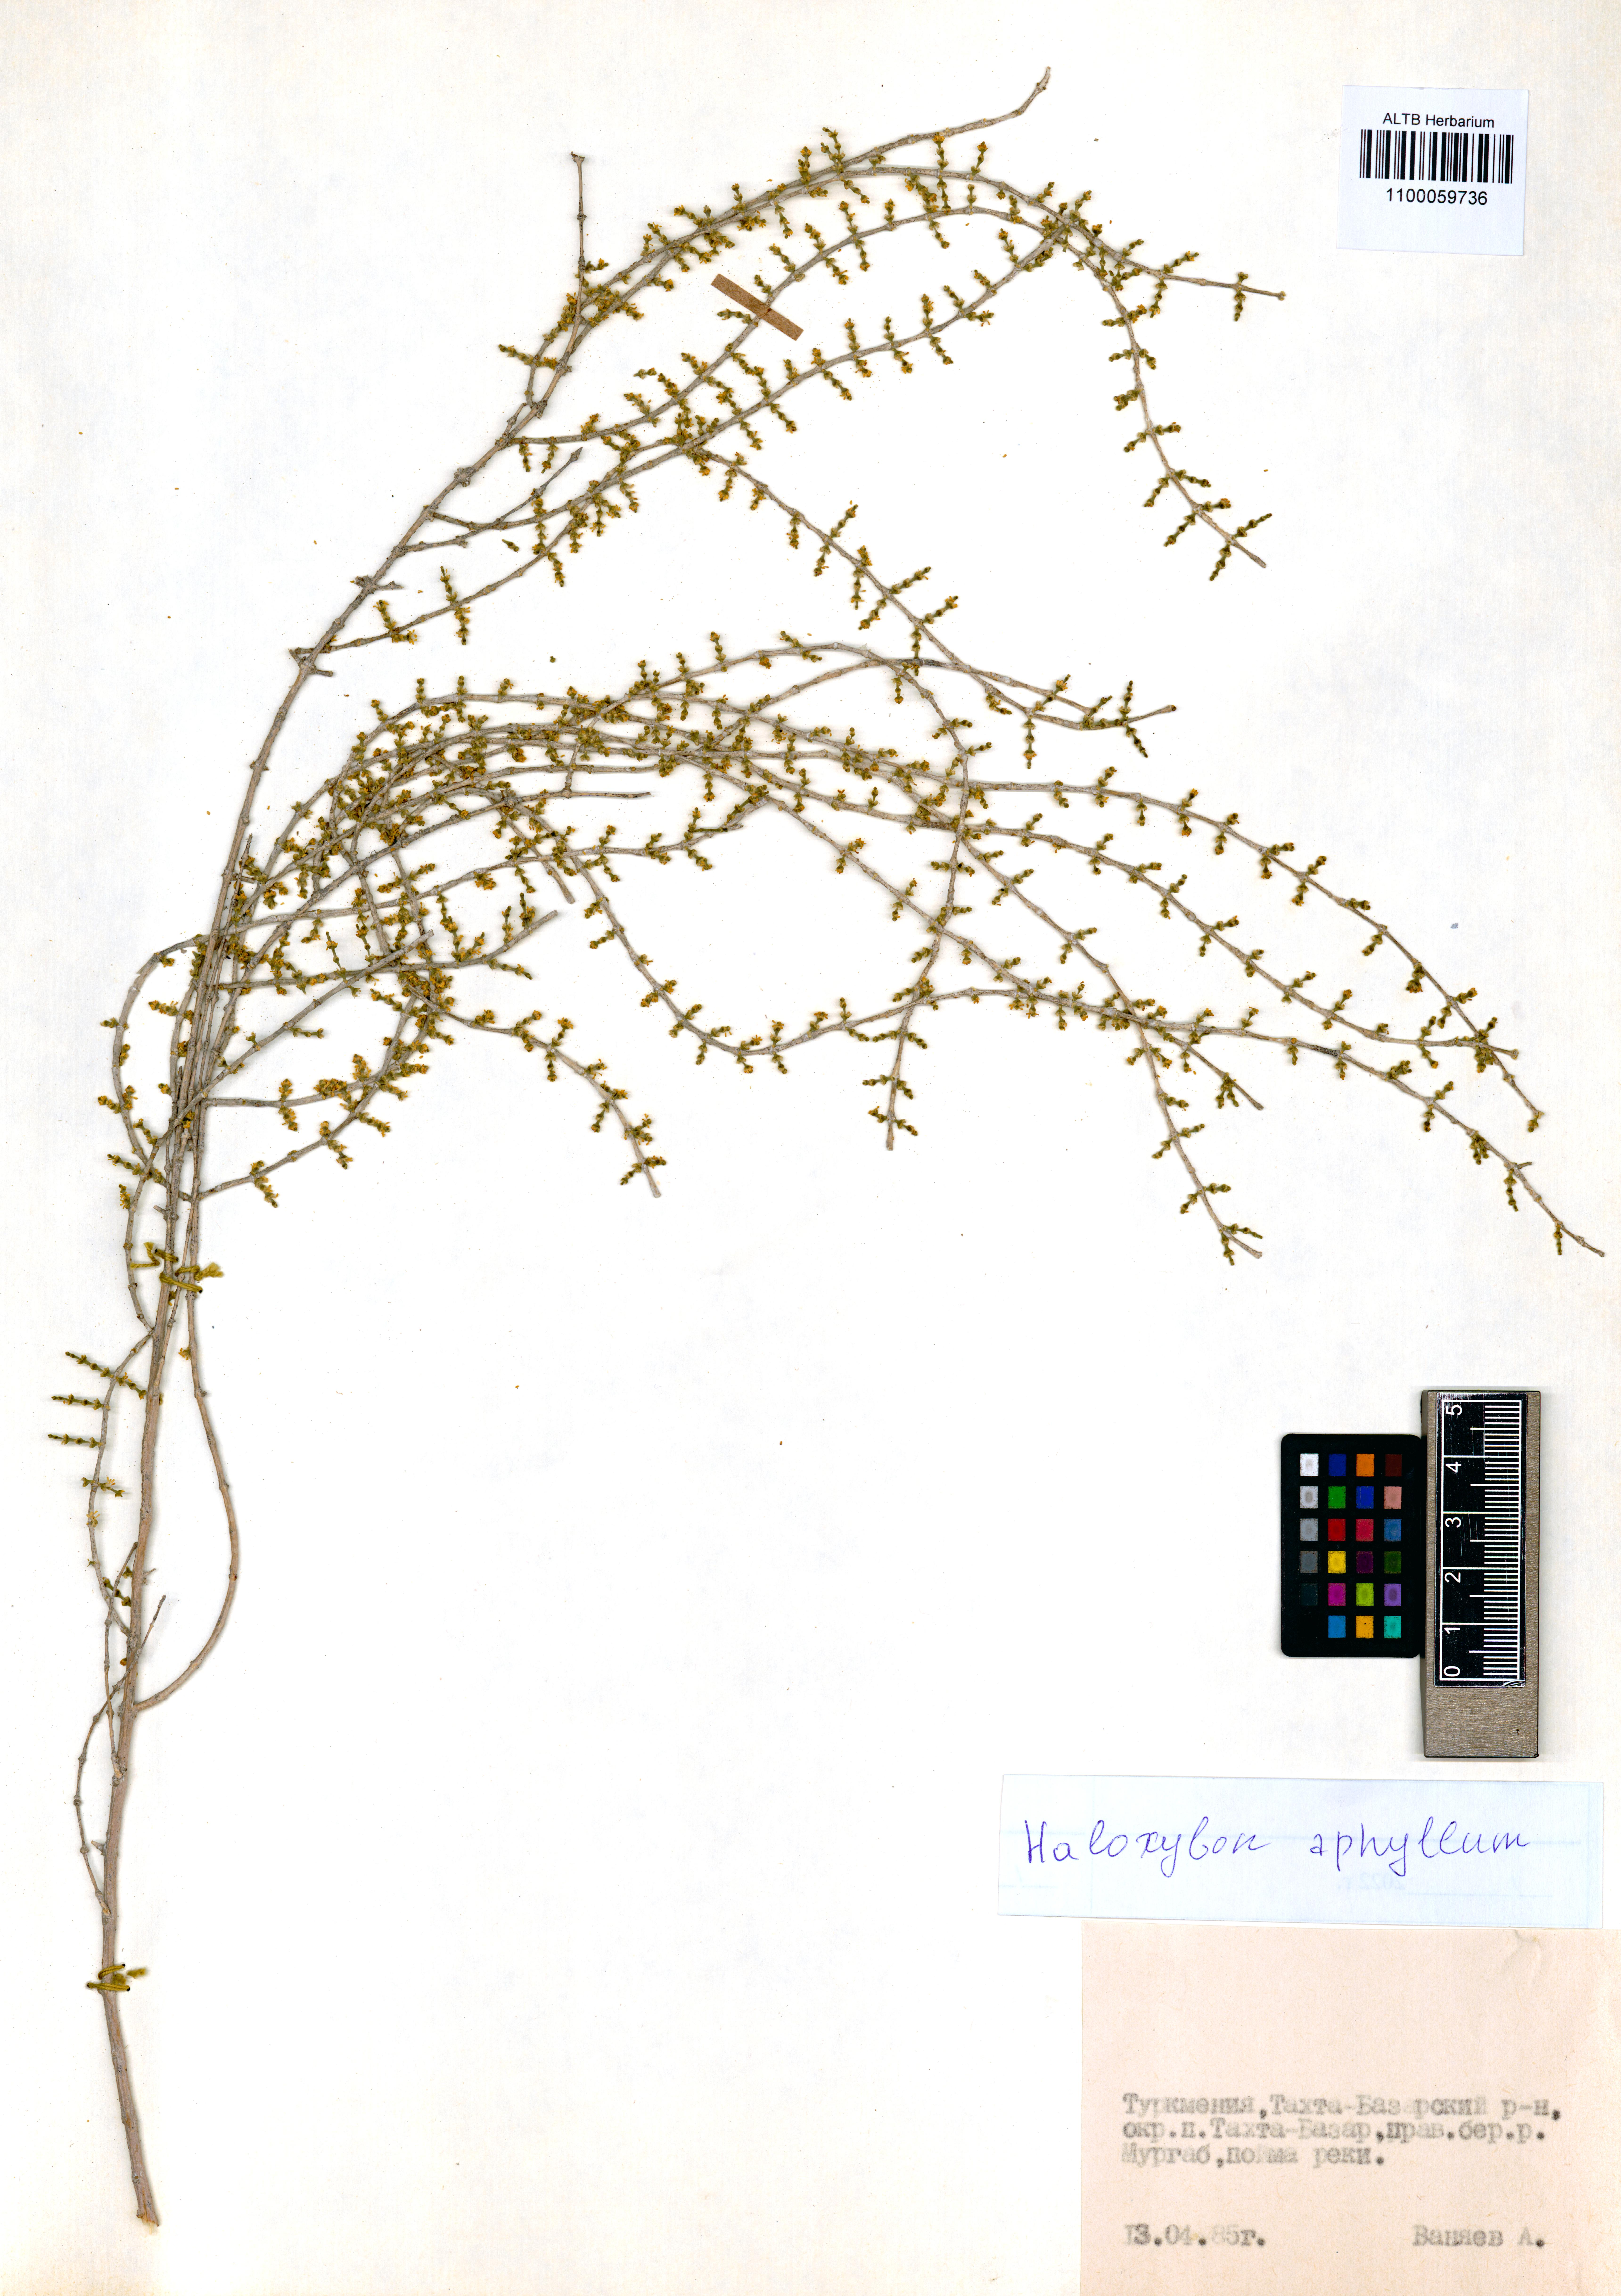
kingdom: Plantae
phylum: Tracheophyta
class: Magnoliopsida
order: Caryophyllales
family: Amaranthaceae
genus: Haloxylon
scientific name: Haloxylon ammodendron
